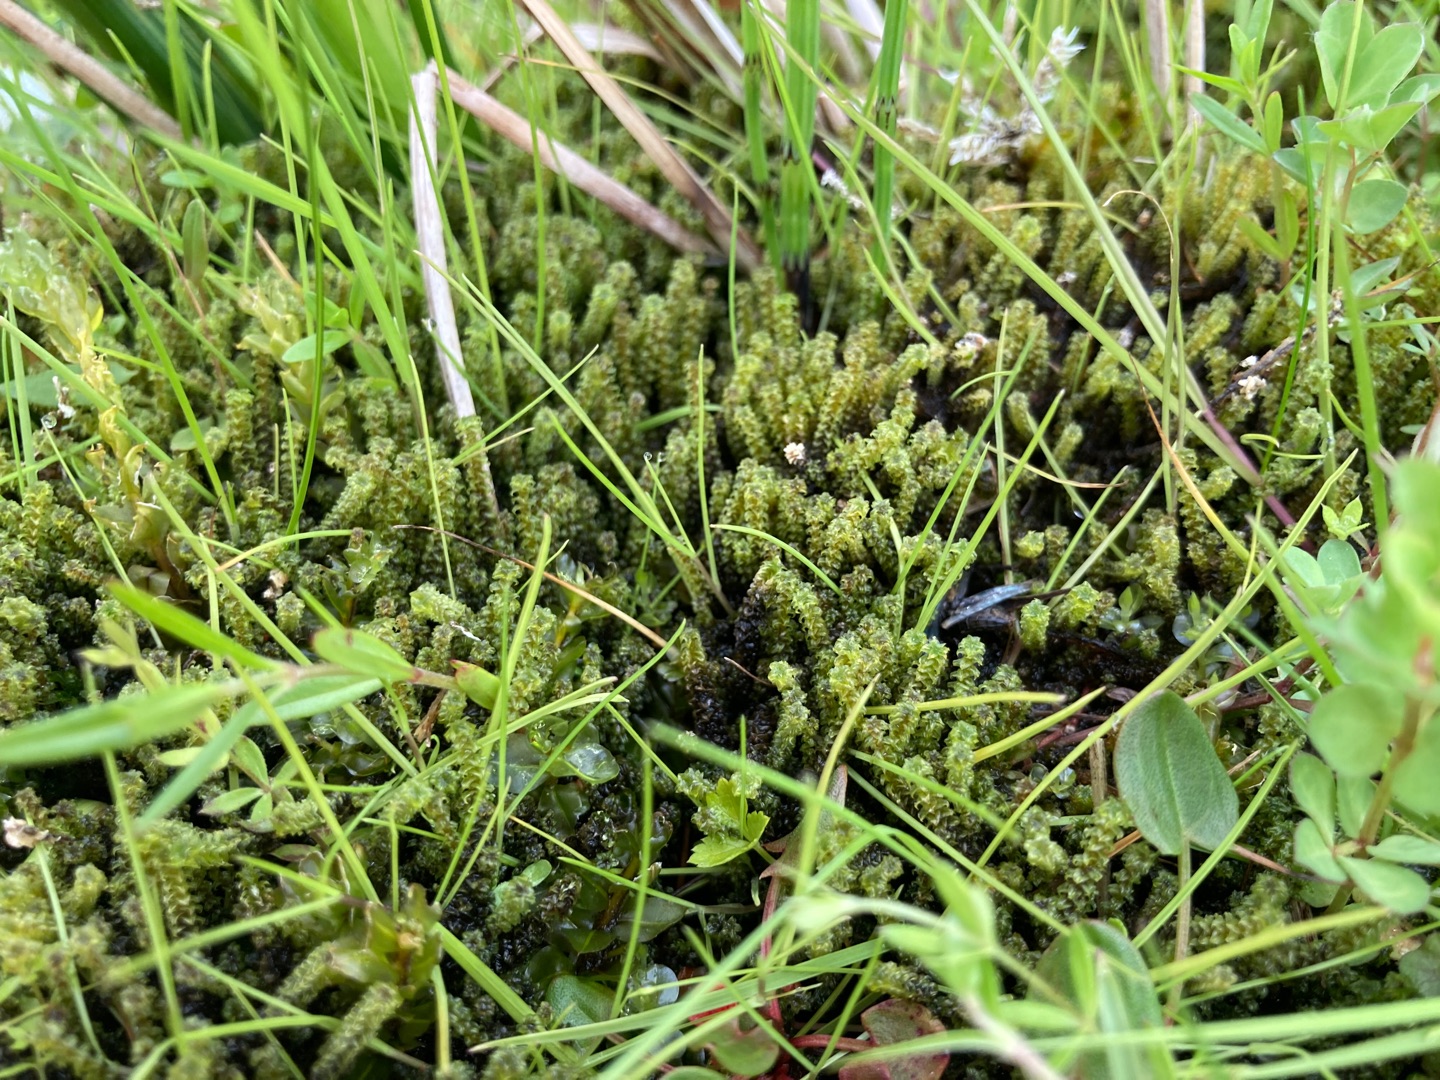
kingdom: Plantae
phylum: Bryophyta
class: Bryopsida
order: Splachnales
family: Meesiaceae
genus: Paludella
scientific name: Paludella squarrosa
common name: Almindelig piberensermos
